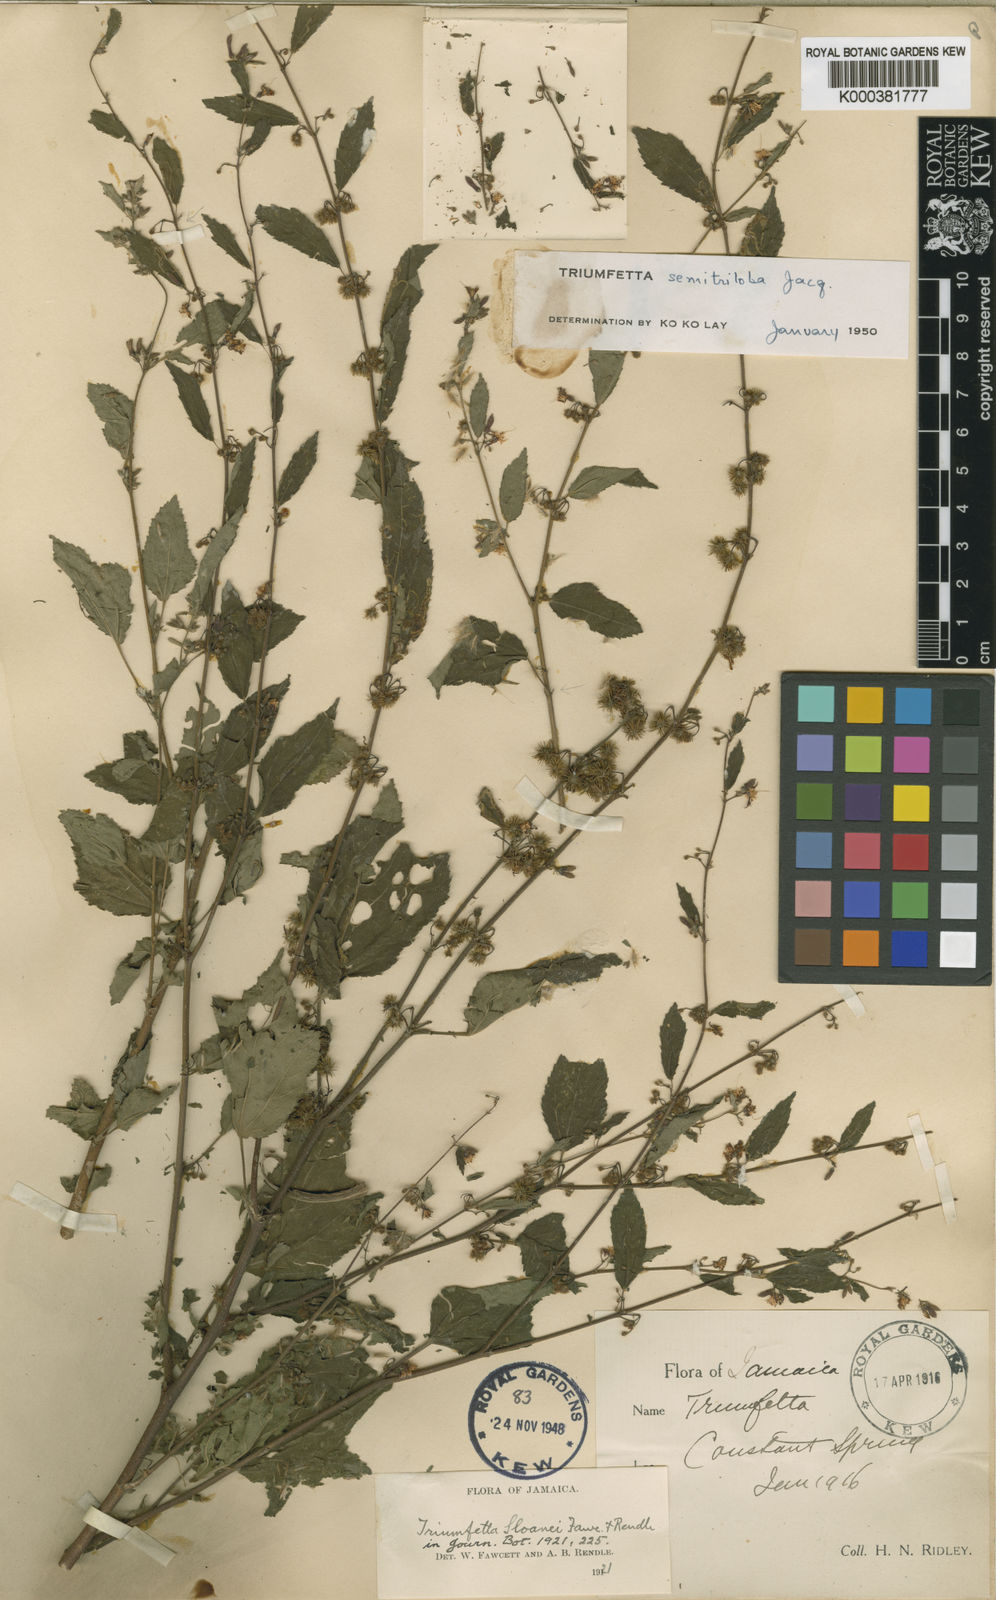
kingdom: Plantae
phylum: Tracheophyta
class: Magnoliopsida
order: Malvales
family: Malvaceae
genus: Triumfetta
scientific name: Triumfetta semitriloba
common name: Sacramento burbark
